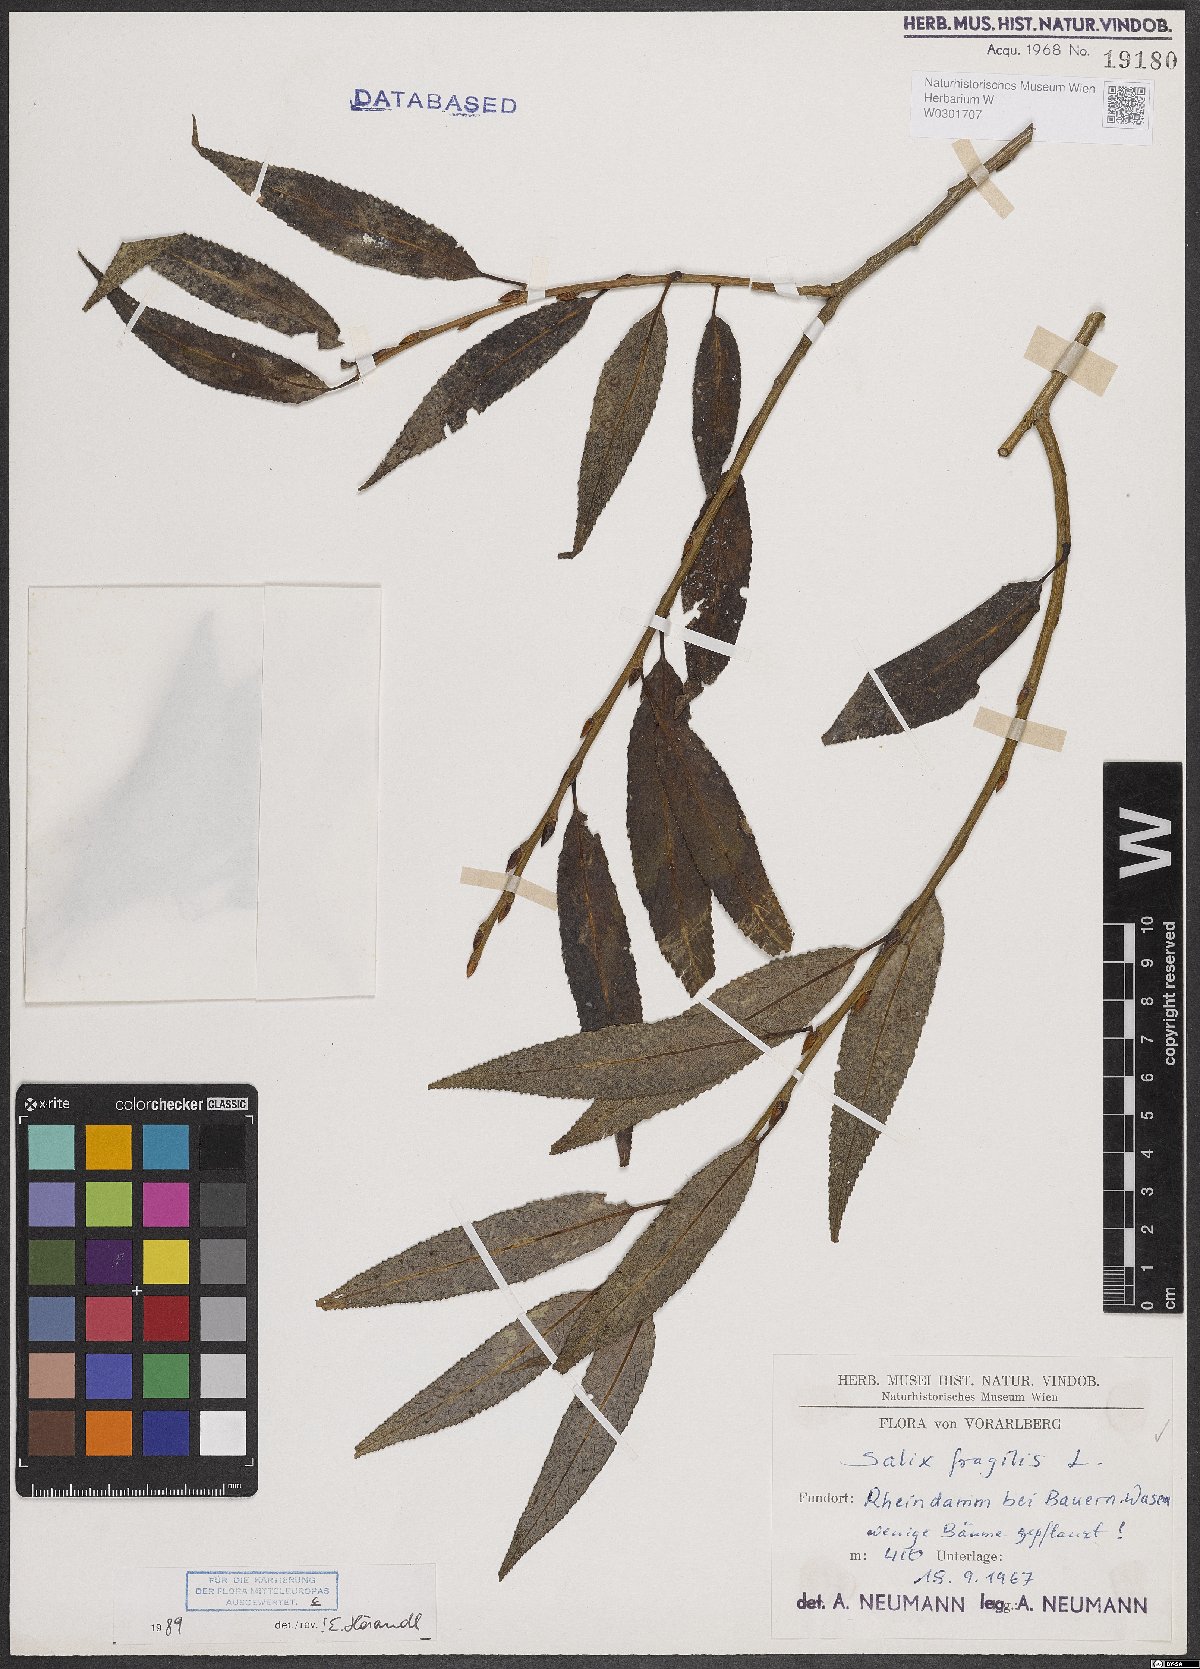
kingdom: Plantae
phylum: Tracheophyta
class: Magnoliopsida
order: Malpighiales
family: Salicaceae
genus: Salix
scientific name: Salix fragilis
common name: Crack willow
